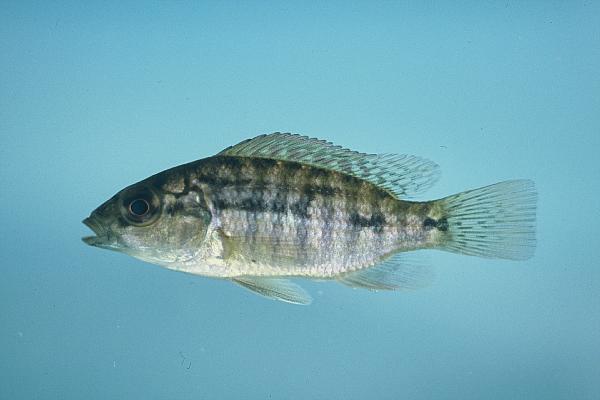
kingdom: Animalia
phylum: Chordata
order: Perciformes
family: Cichlidae
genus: Pharyngochromis
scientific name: Pharyngochromis acuticeps
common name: Zambezi happy
